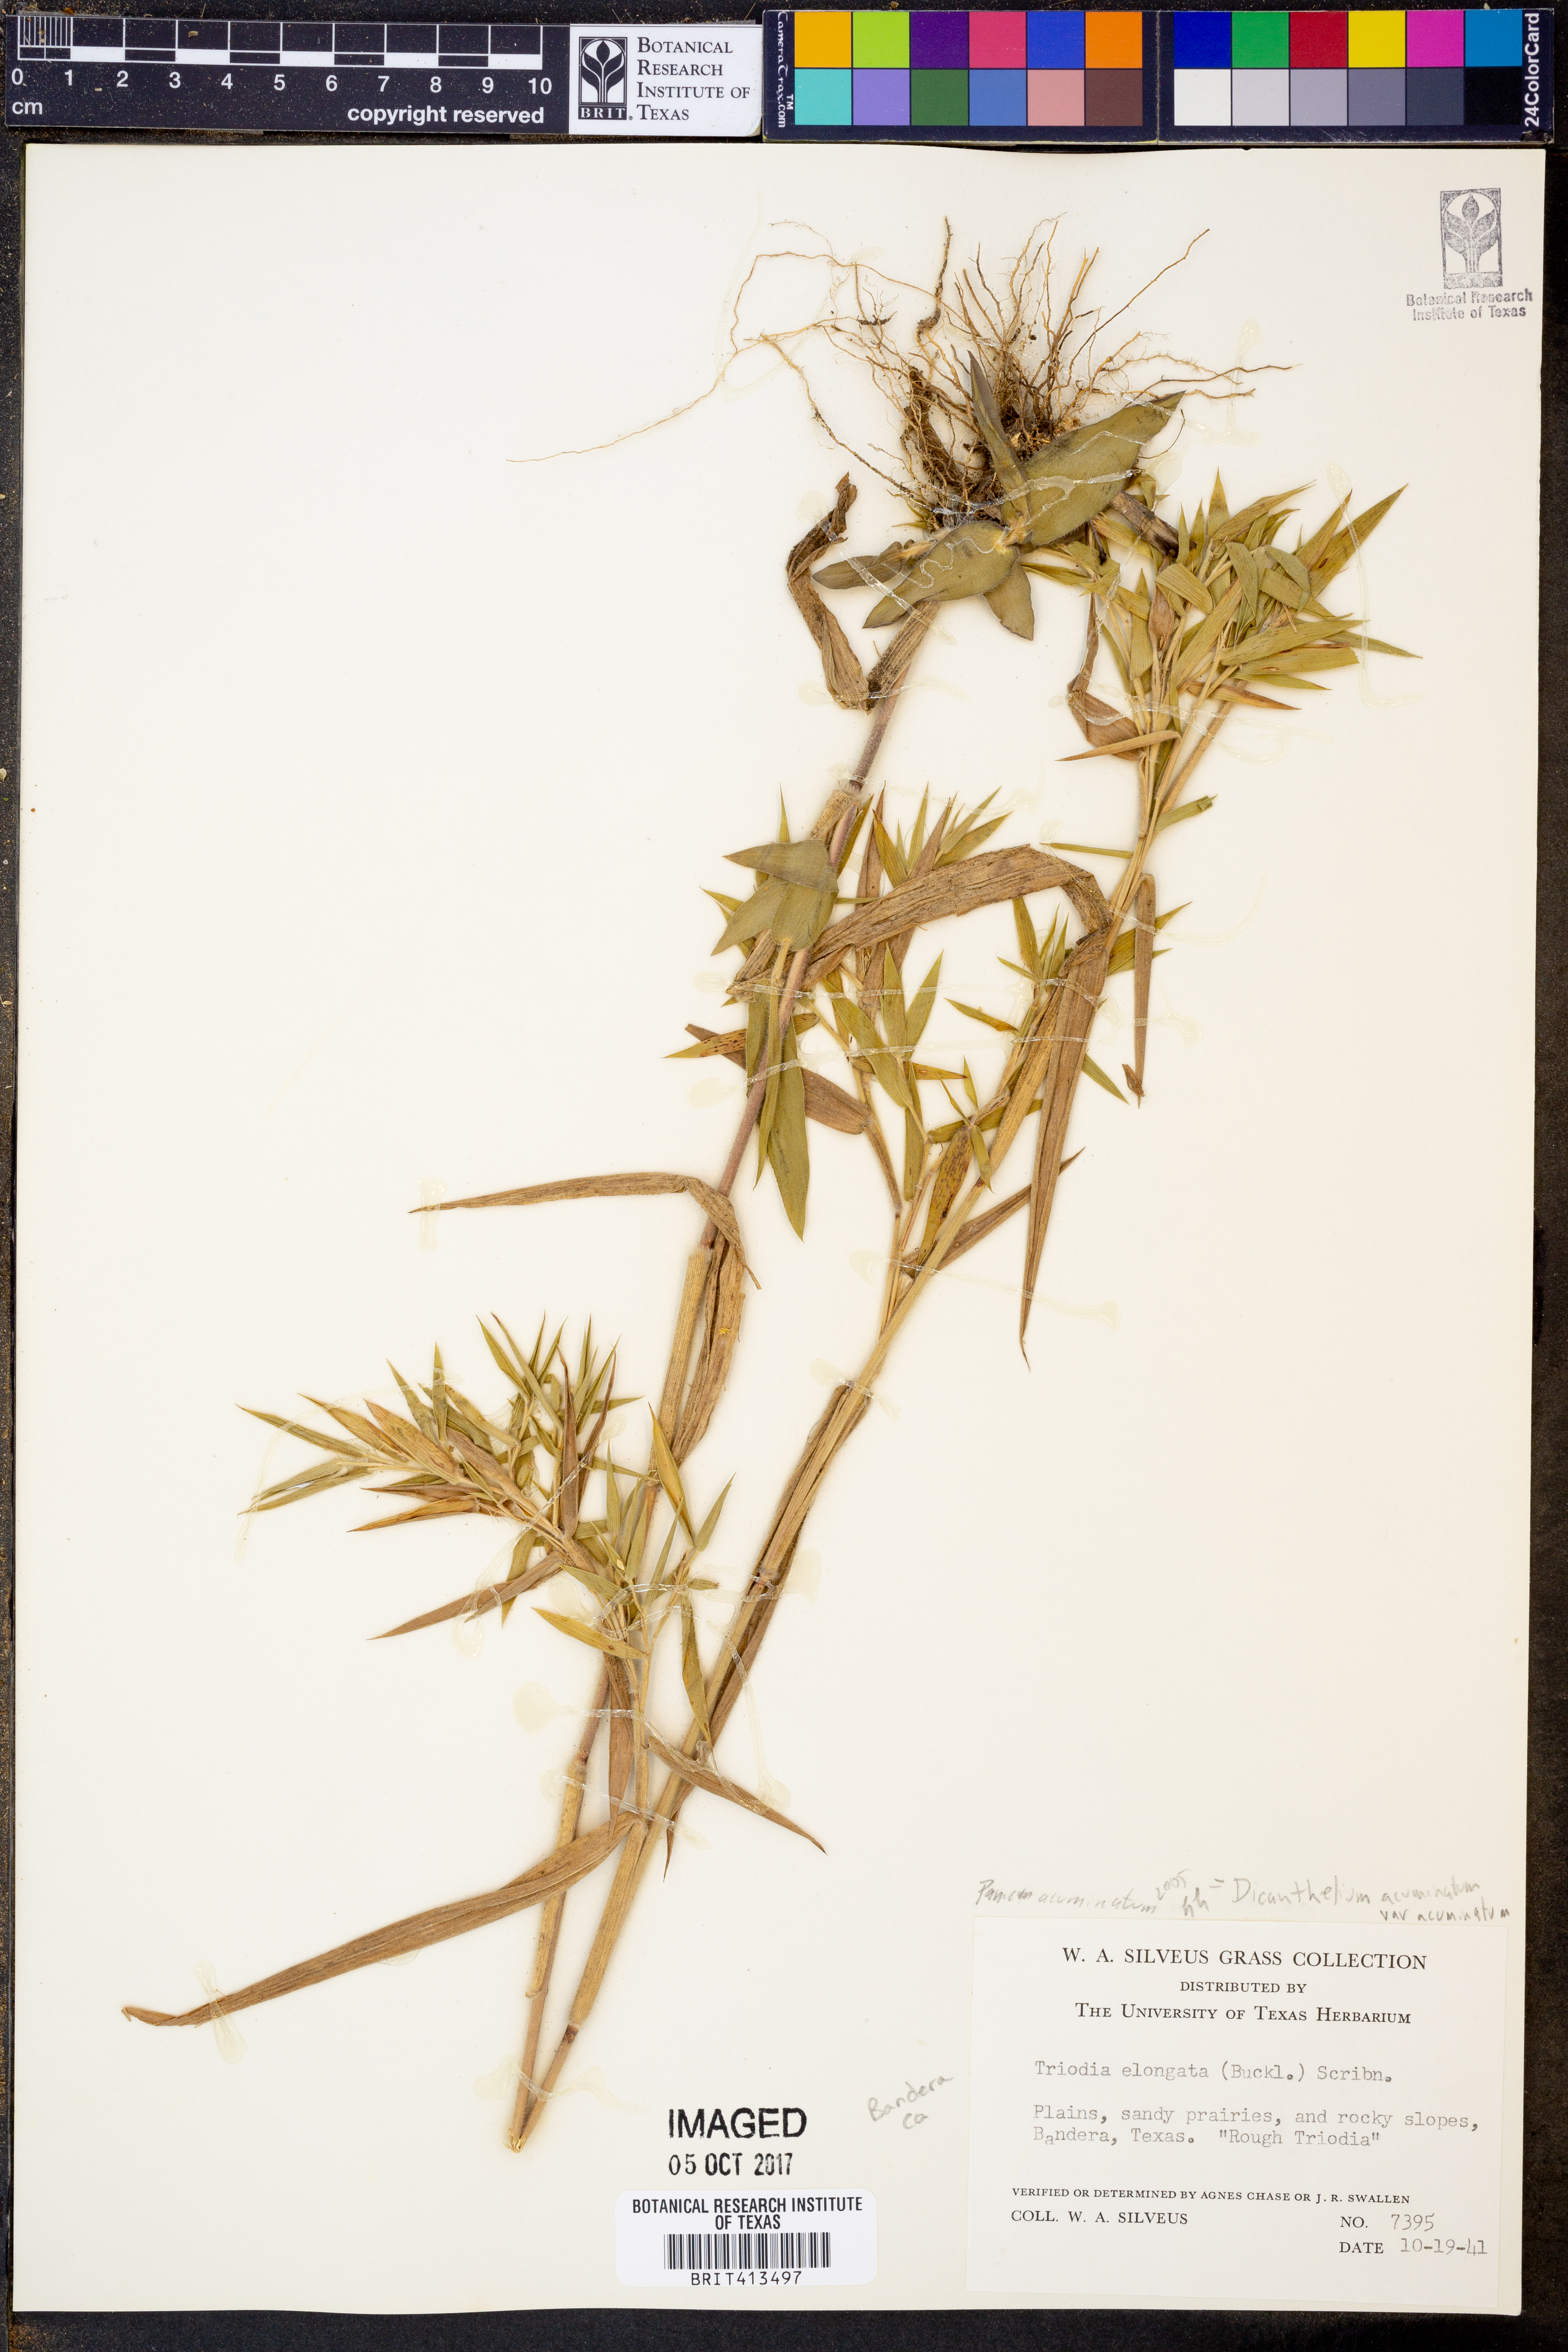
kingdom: Plantae
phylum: Tracheophyta
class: Liliopsida
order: Poales
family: Poaceae
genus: Dichanthelium
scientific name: Dichanthelium acuminatum
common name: Hairy panic grass
